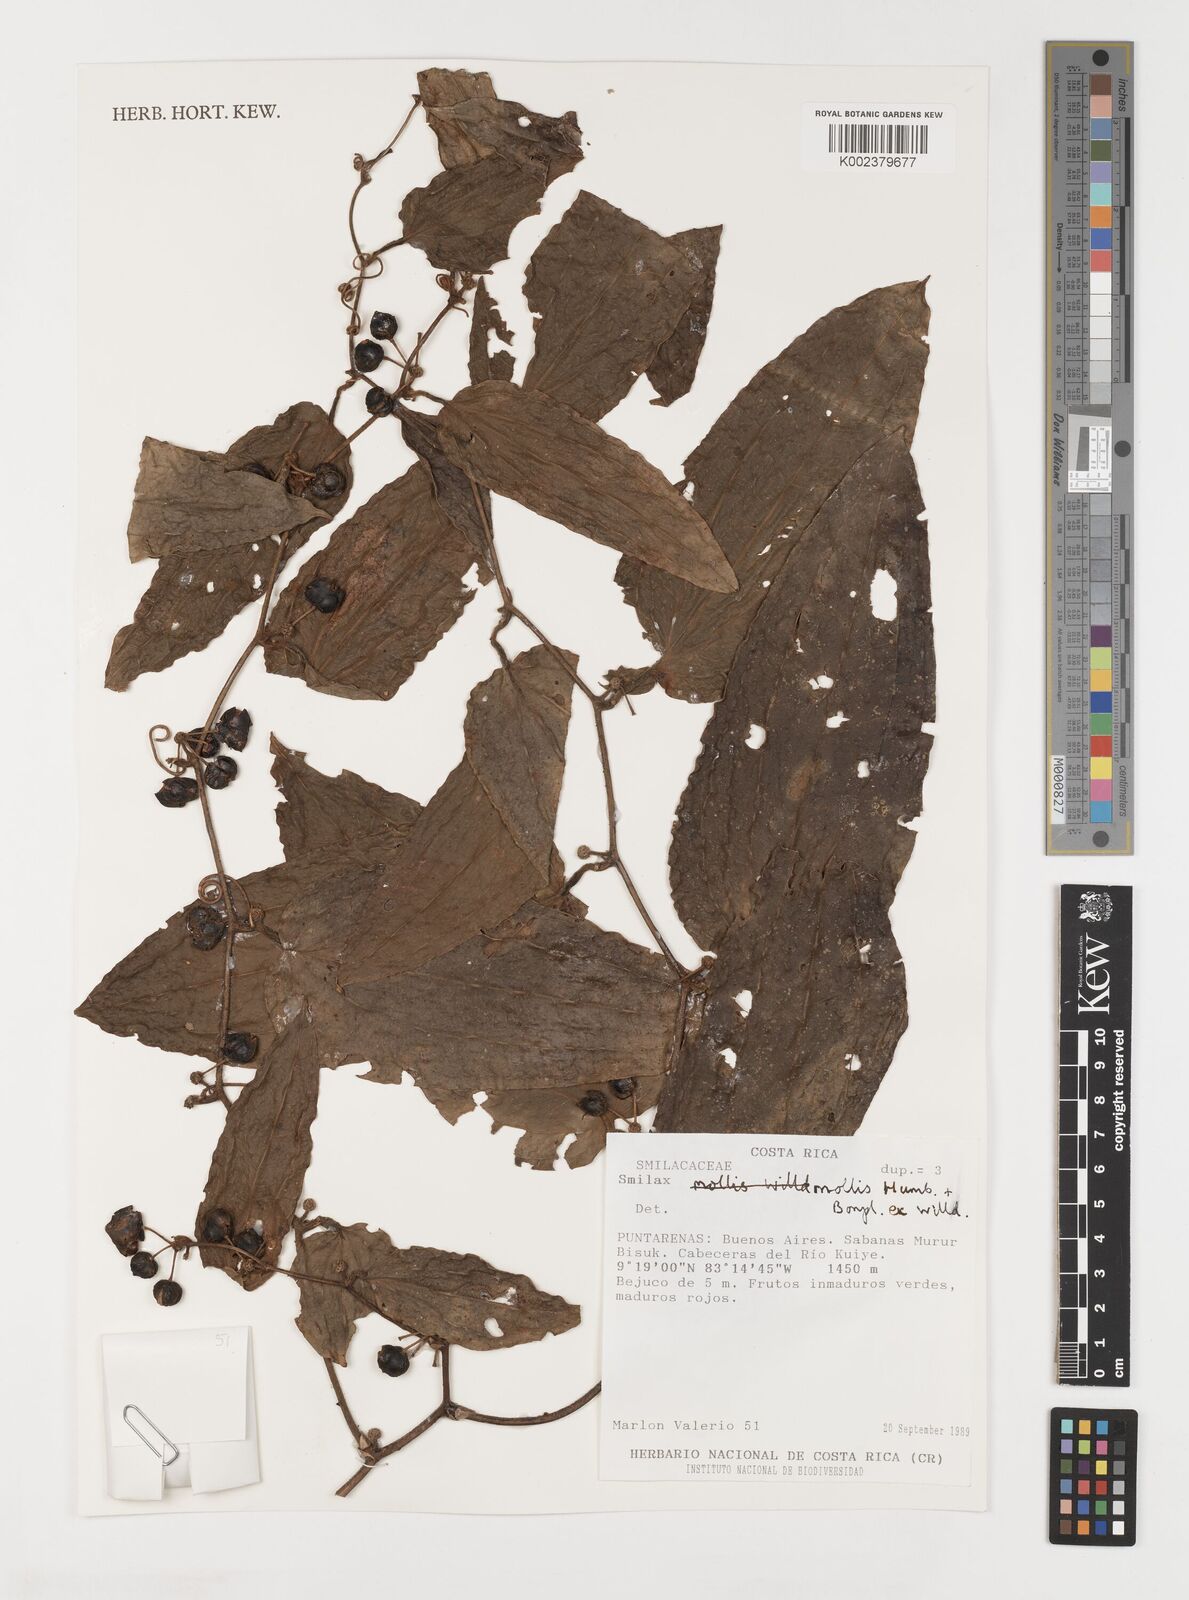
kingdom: Plantae
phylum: Tracheophyta
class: Liliopsida
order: Liliales
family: Smilacaceae
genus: Smilax
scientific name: Smilax mollis
